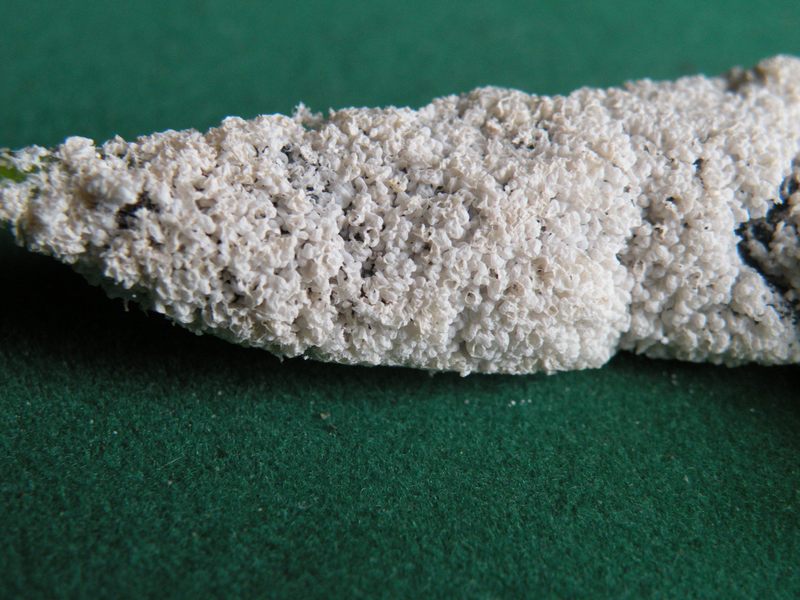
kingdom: Protozoa
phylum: Mycetozoa
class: Myxomycetes
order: Physarales
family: Physaraceae
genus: Didymium
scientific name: Didymium
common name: urteskum
